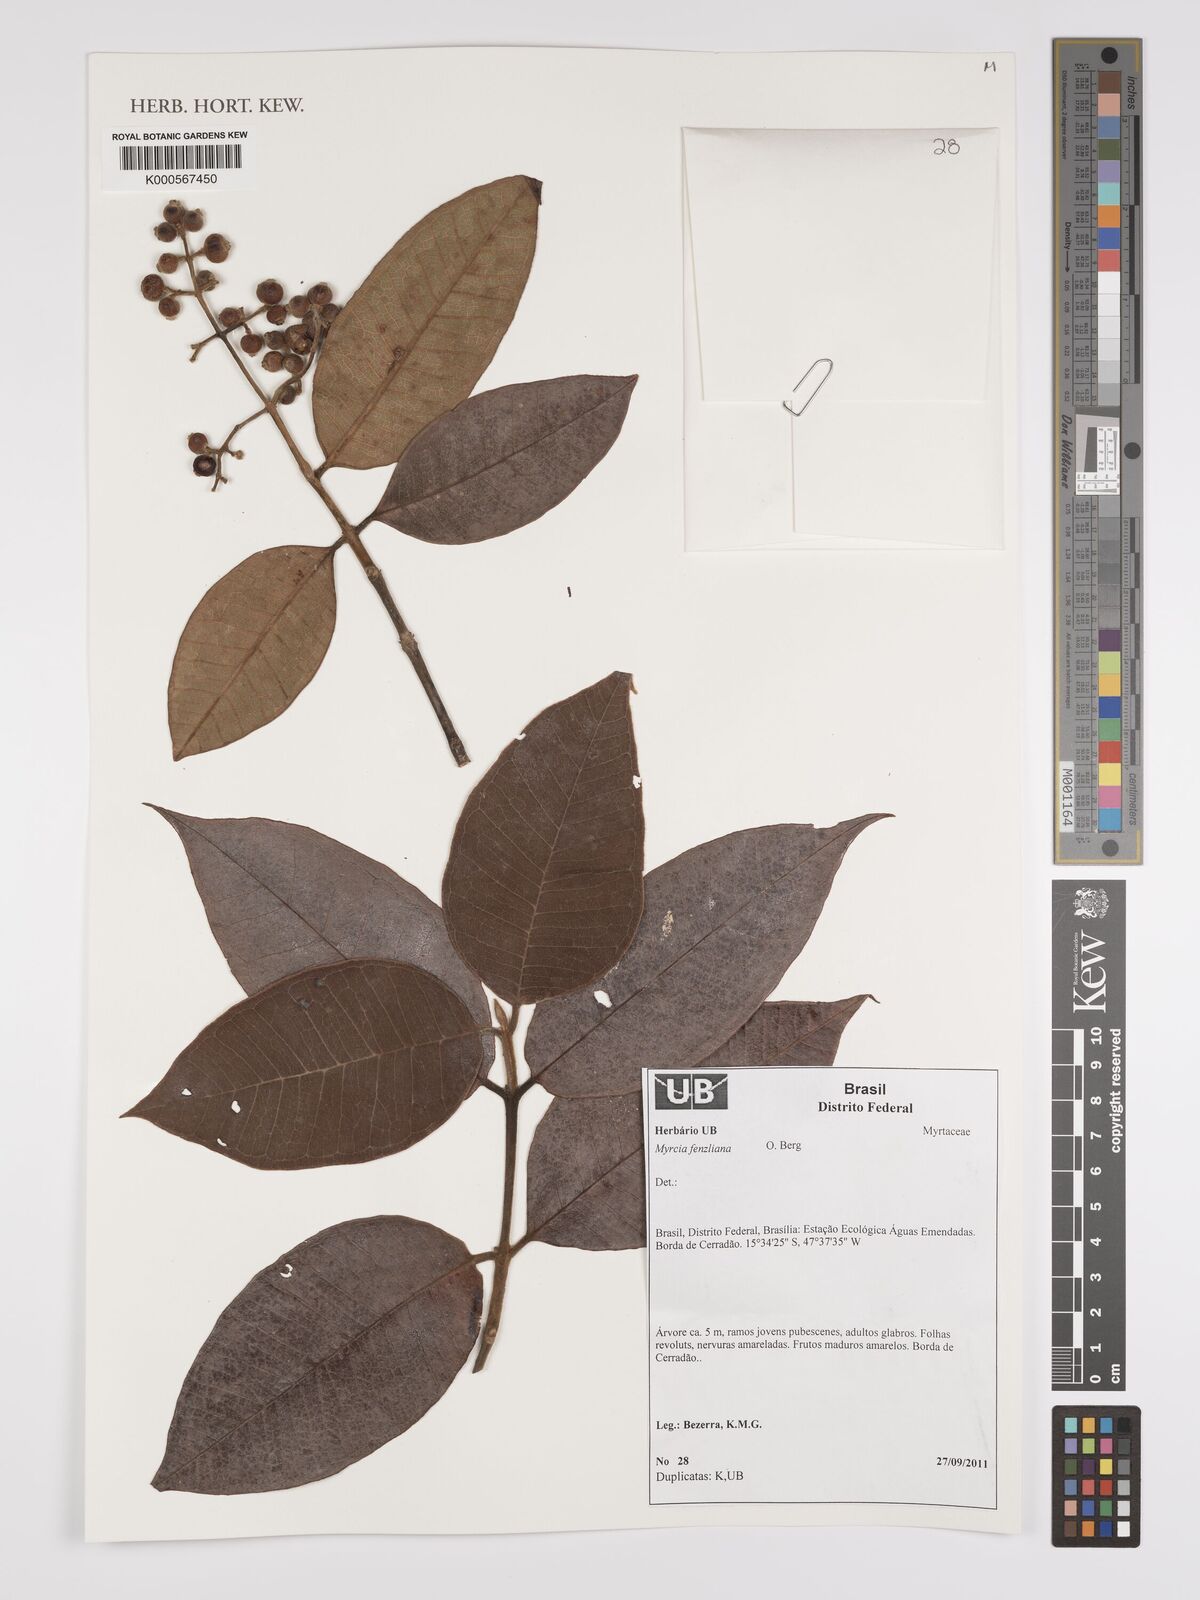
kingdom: Plantae
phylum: Tracheophyta
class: Magnoliopsida
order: Myrtales
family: Myrtaceae
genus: Myrcia
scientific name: Myrcia fenzliana
